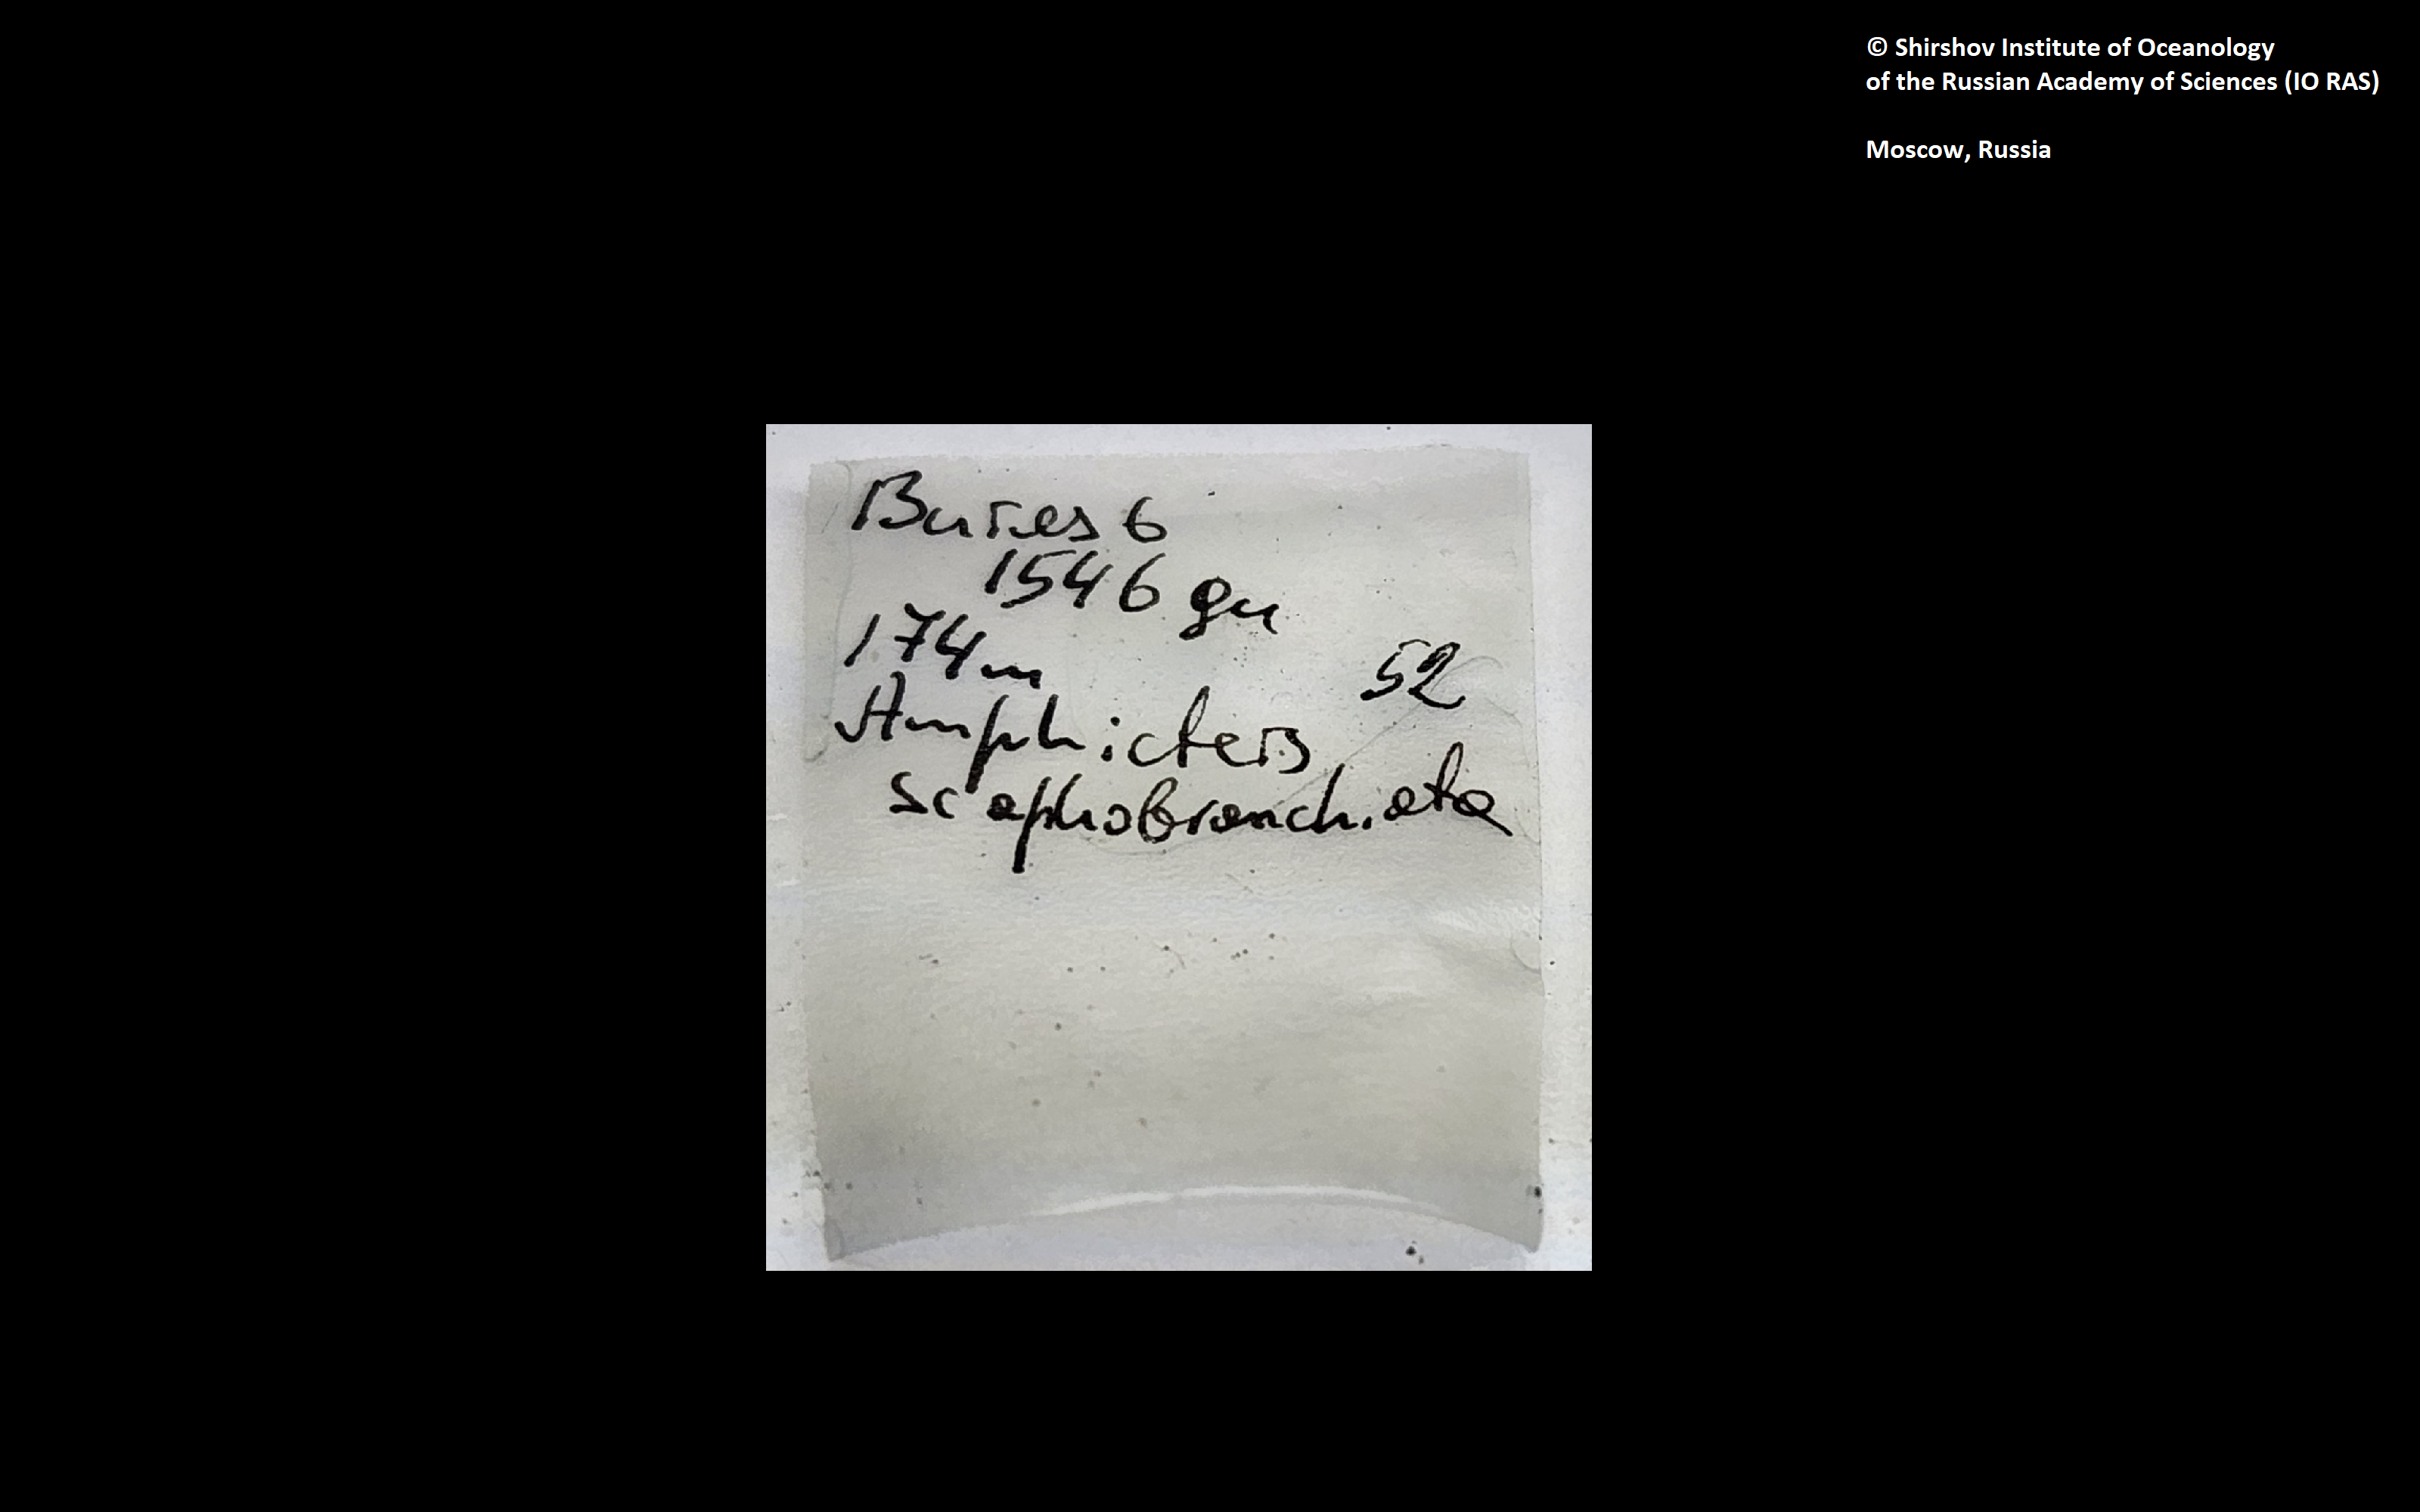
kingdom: Animalia
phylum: Annelida
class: Polychaeta
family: Ampharetidae
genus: Amphicteis
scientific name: Amphicteis nikiti
